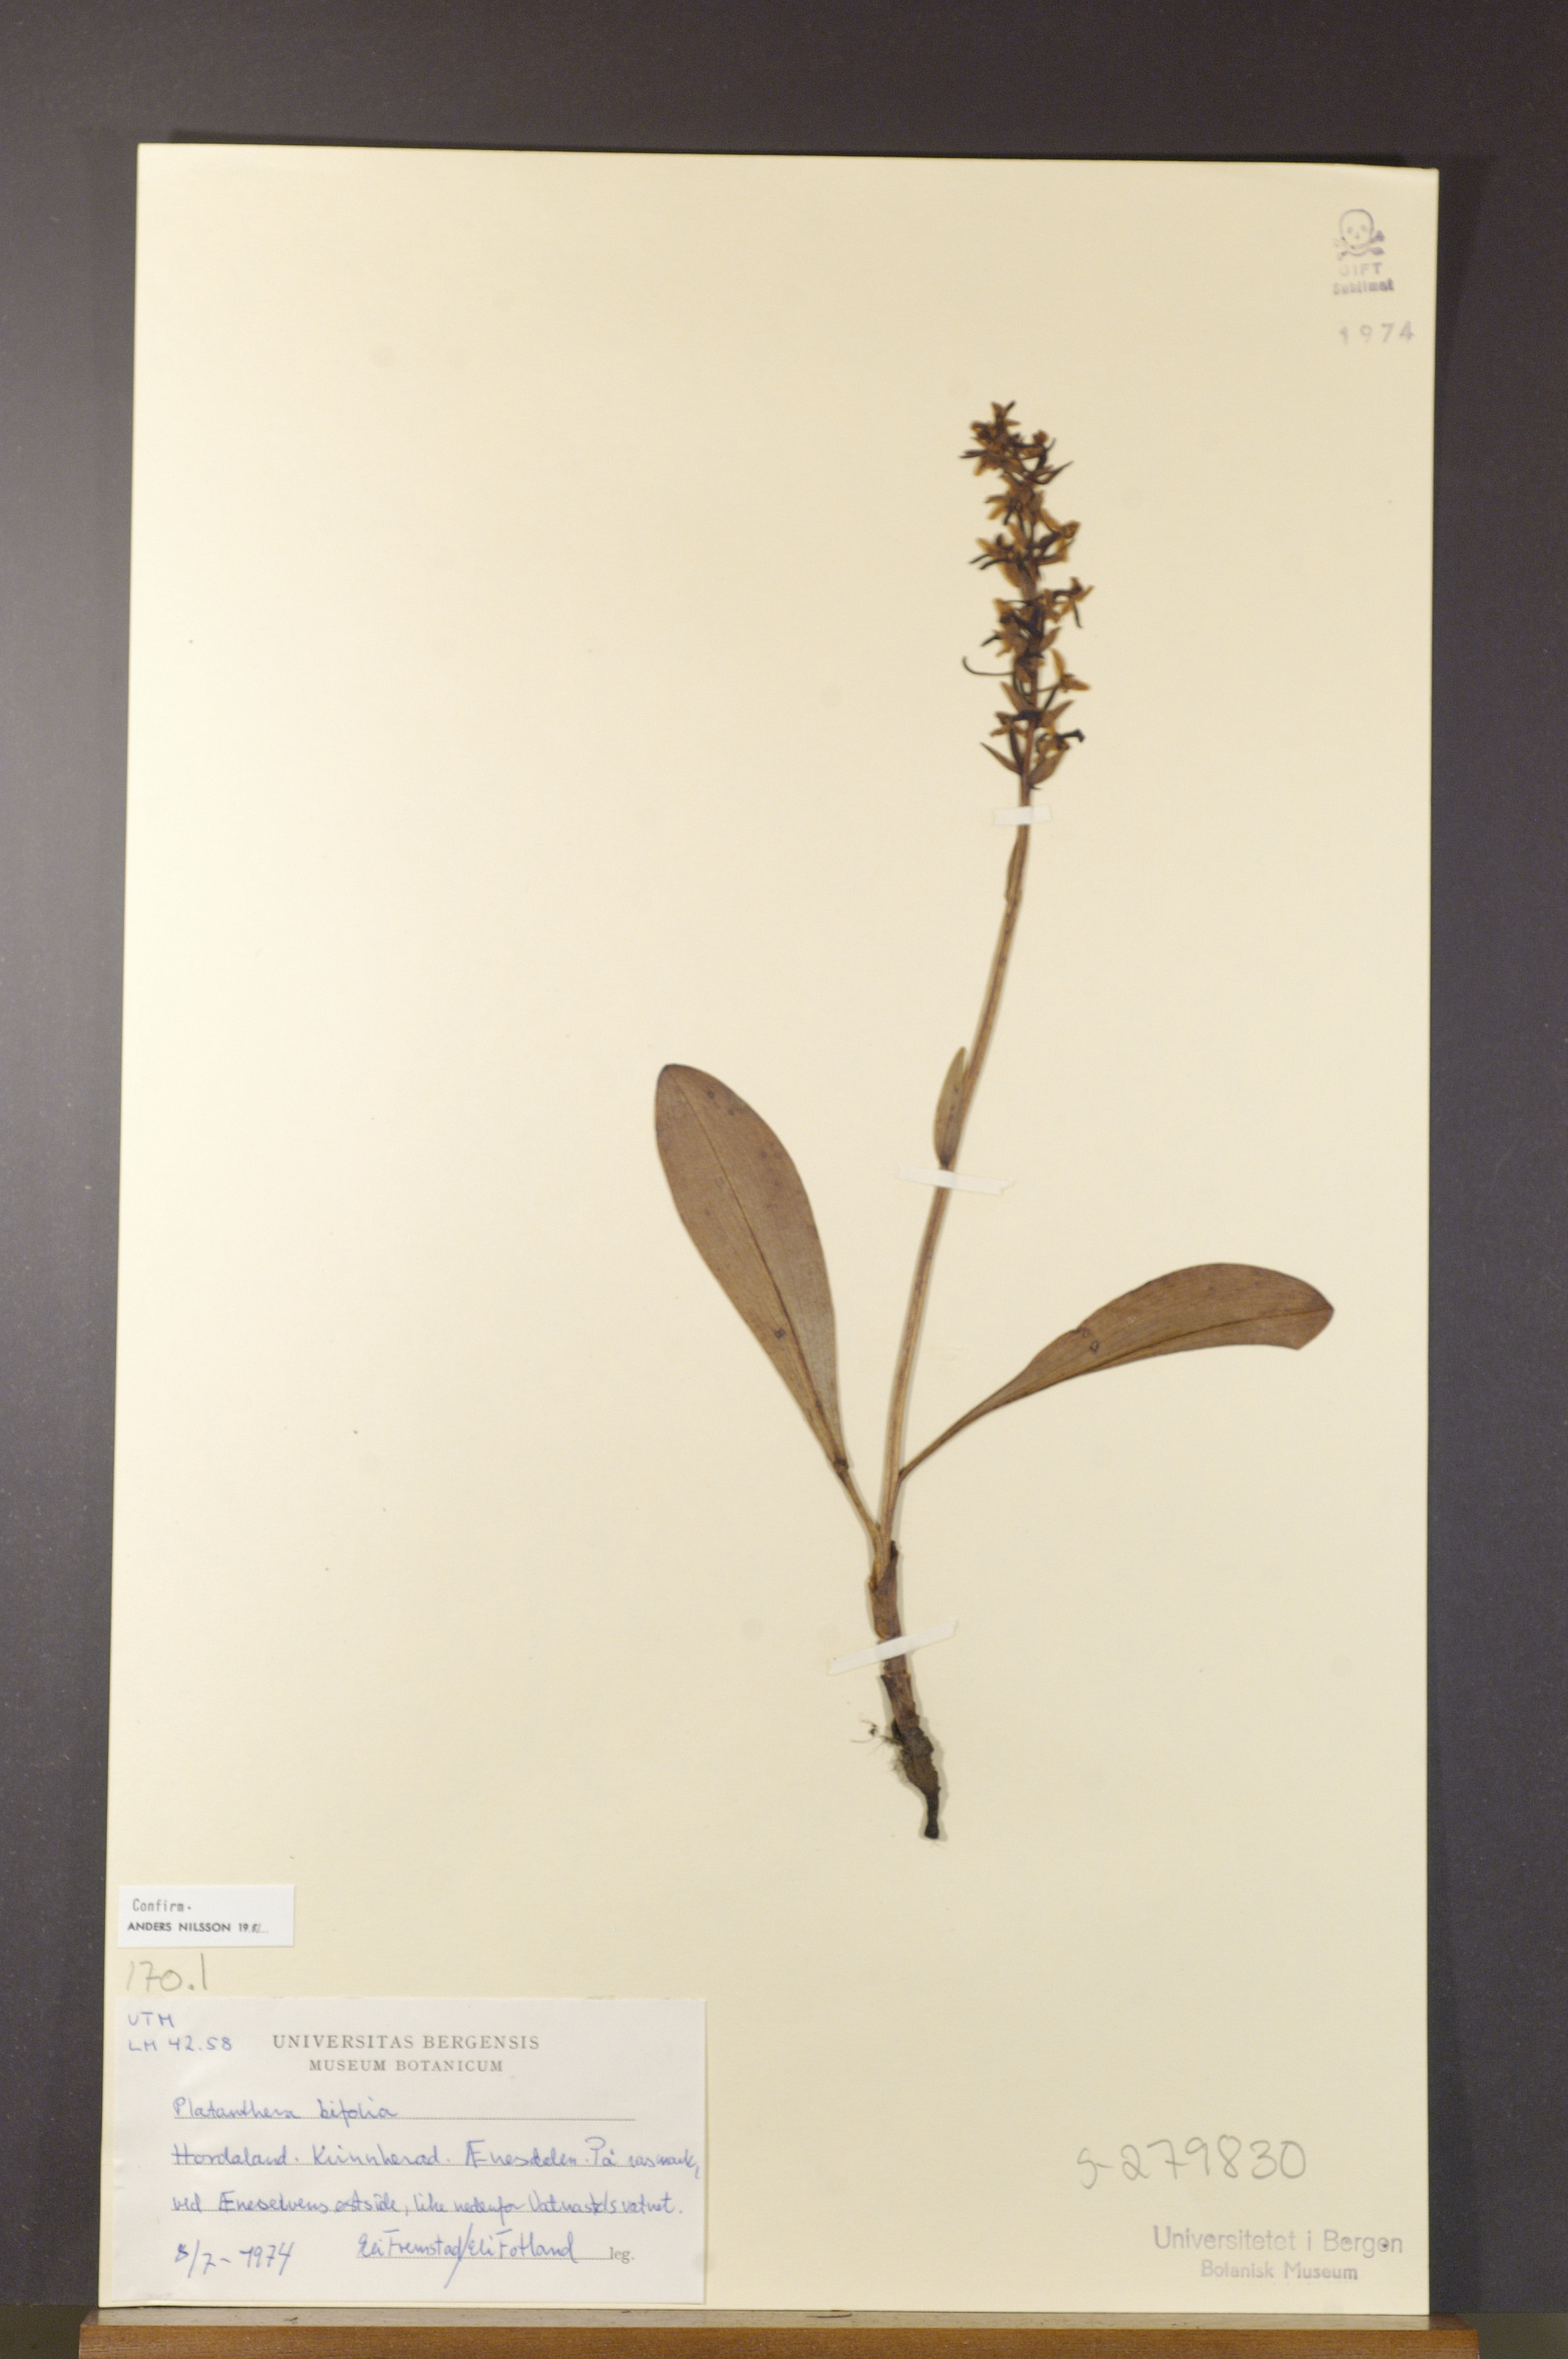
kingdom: Plantae
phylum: Tracheophyta
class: Liliopsida
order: Asparagales
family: Orchidaceae
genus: Platanthera
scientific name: Platanthera bifolia
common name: Lesser butterfly-orchid
